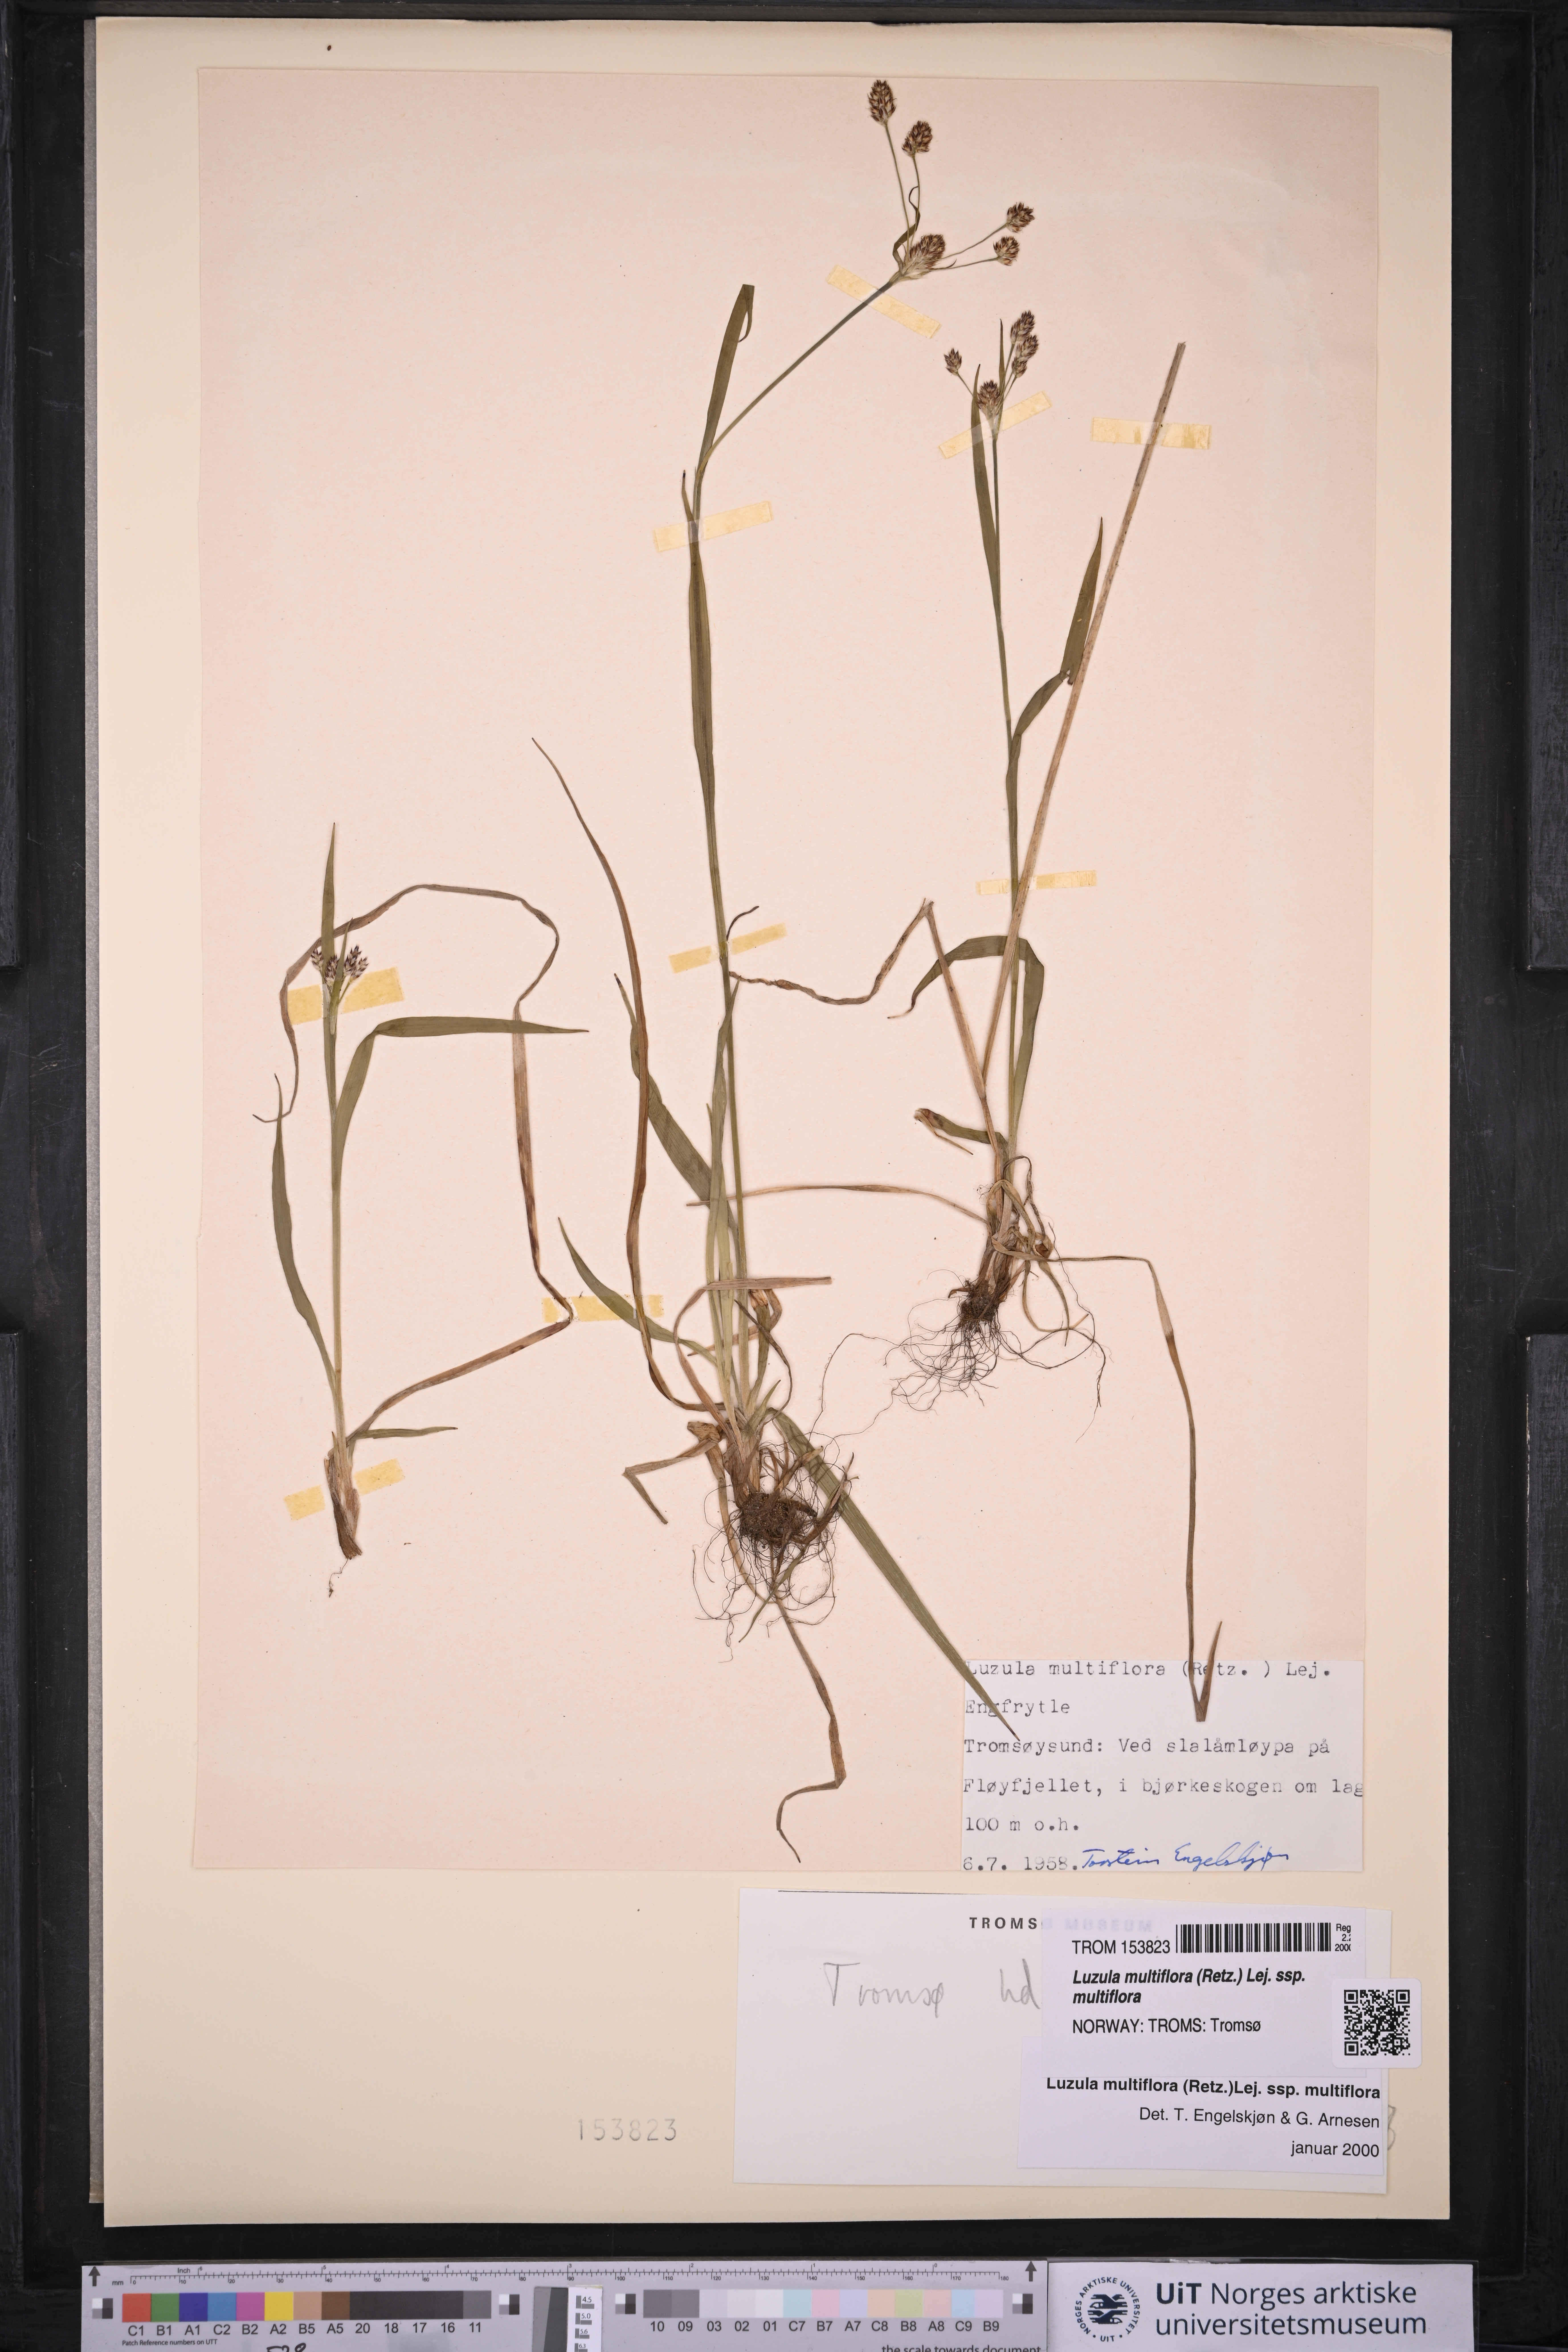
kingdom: Plantae
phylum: Tracheophyta
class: Liliopsida
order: Poales
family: Juncaceae
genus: Luzula
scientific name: Luzula multiflora
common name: Heath wood-rush
